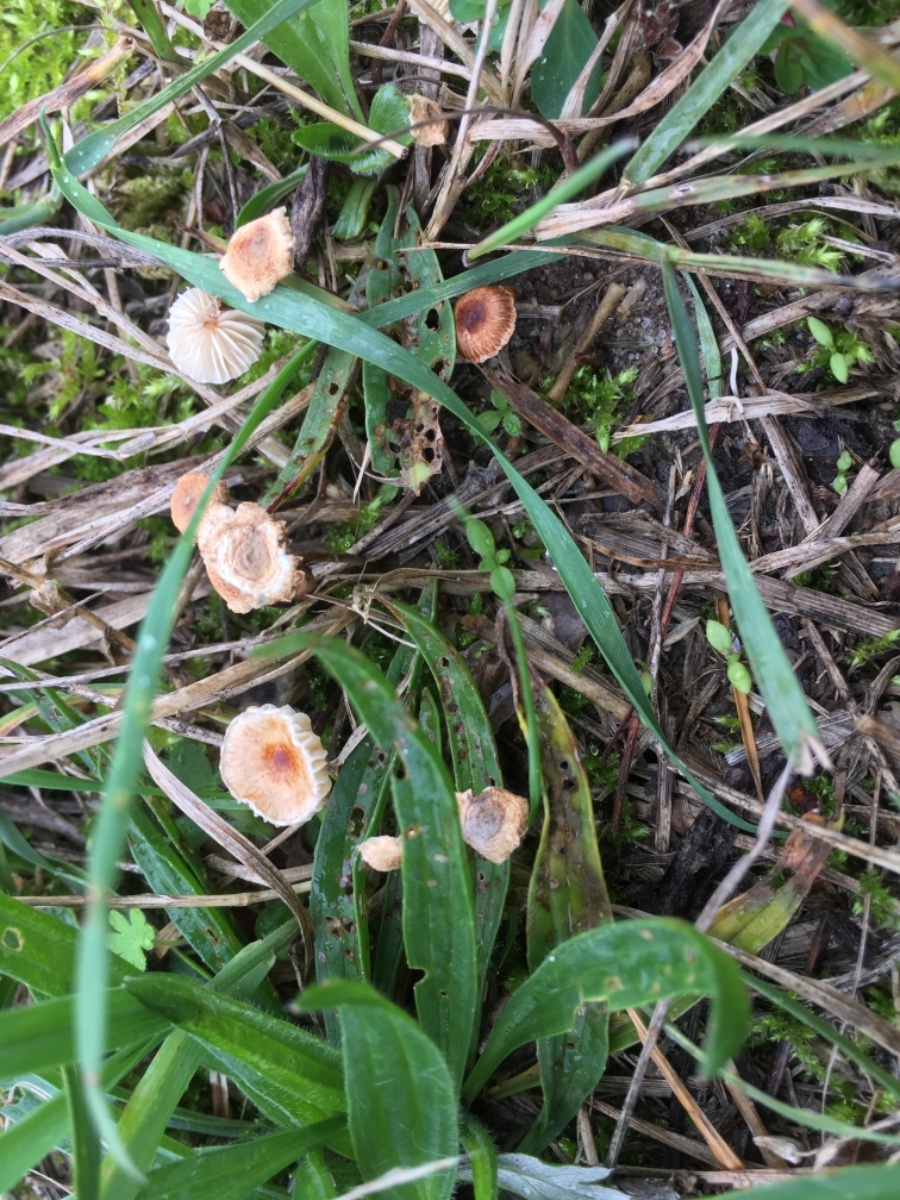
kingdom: Fungi
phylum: Basidiomycota
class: Agaricomycetes
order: Agaricales
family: Marasmiaceae
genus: Crinipellis
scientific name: Crinipellis scabella
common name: børstefod
